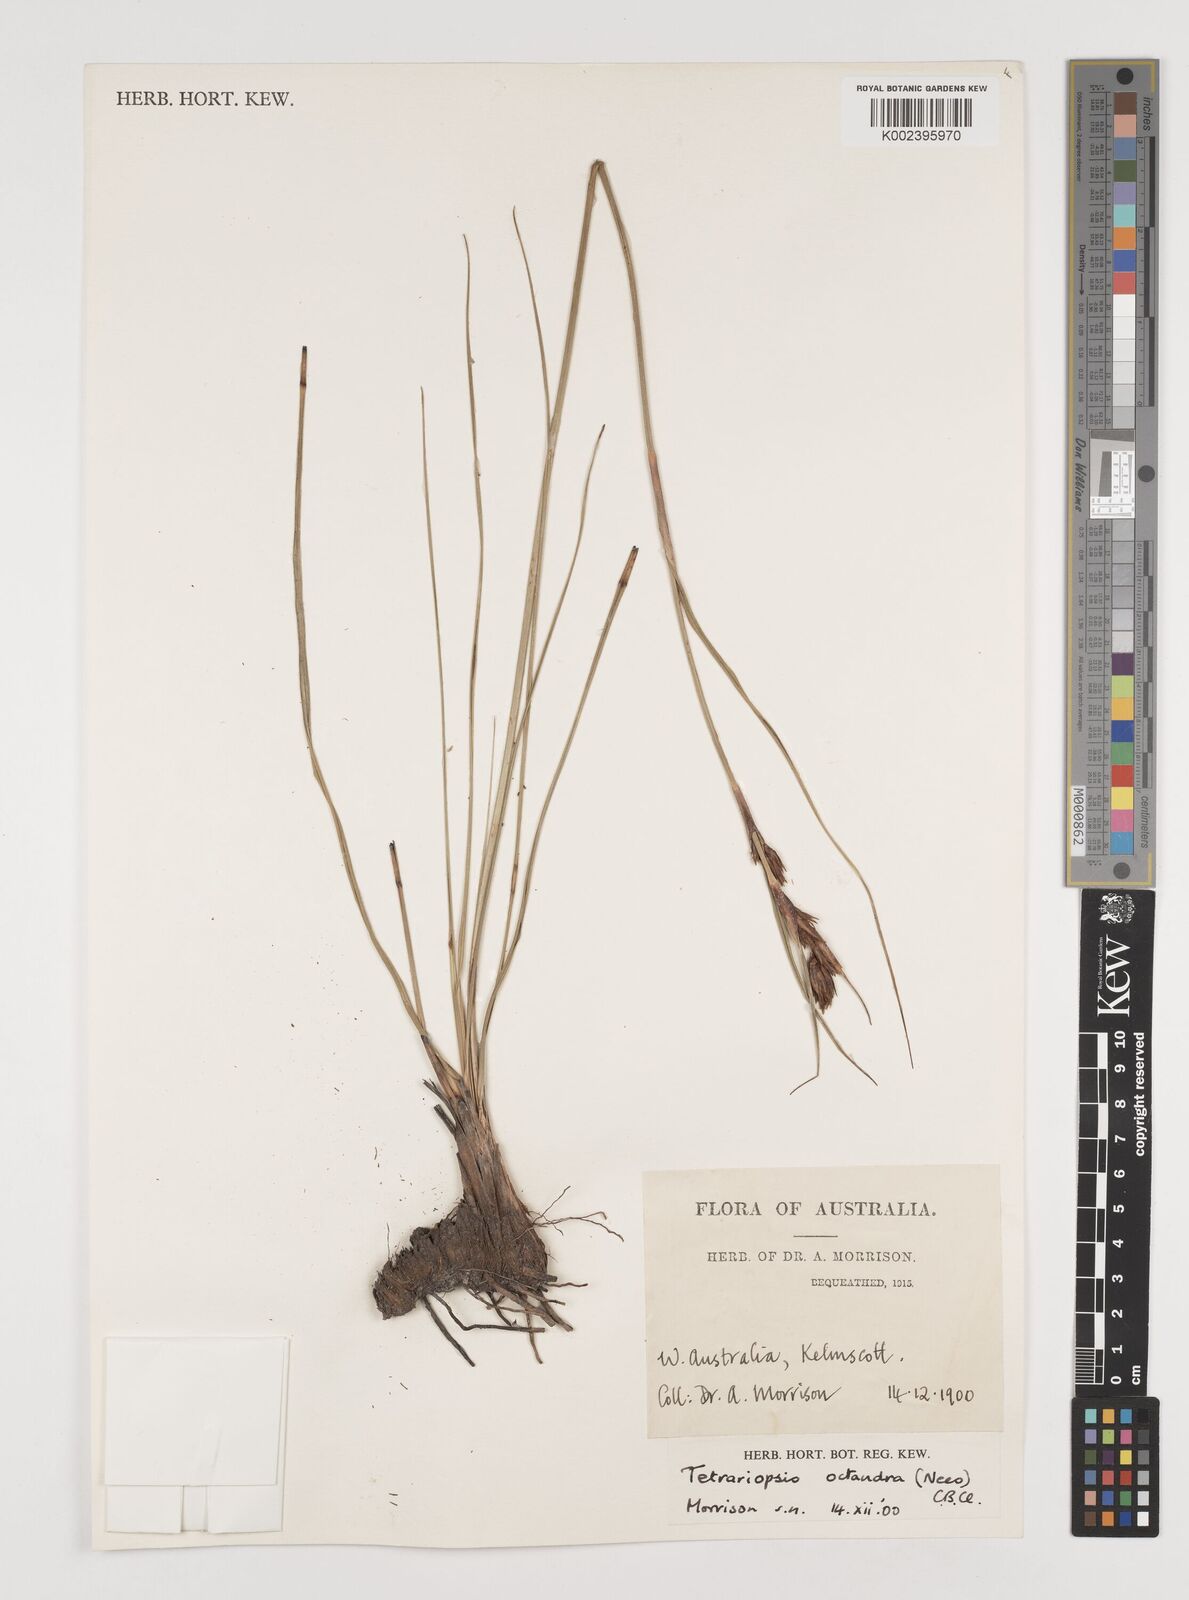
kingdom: Plantae
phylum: Tracheophyta
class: Liliopsida
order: Poales
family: Cyperaceae
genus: Tetraria
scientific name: Tetraria octandra
